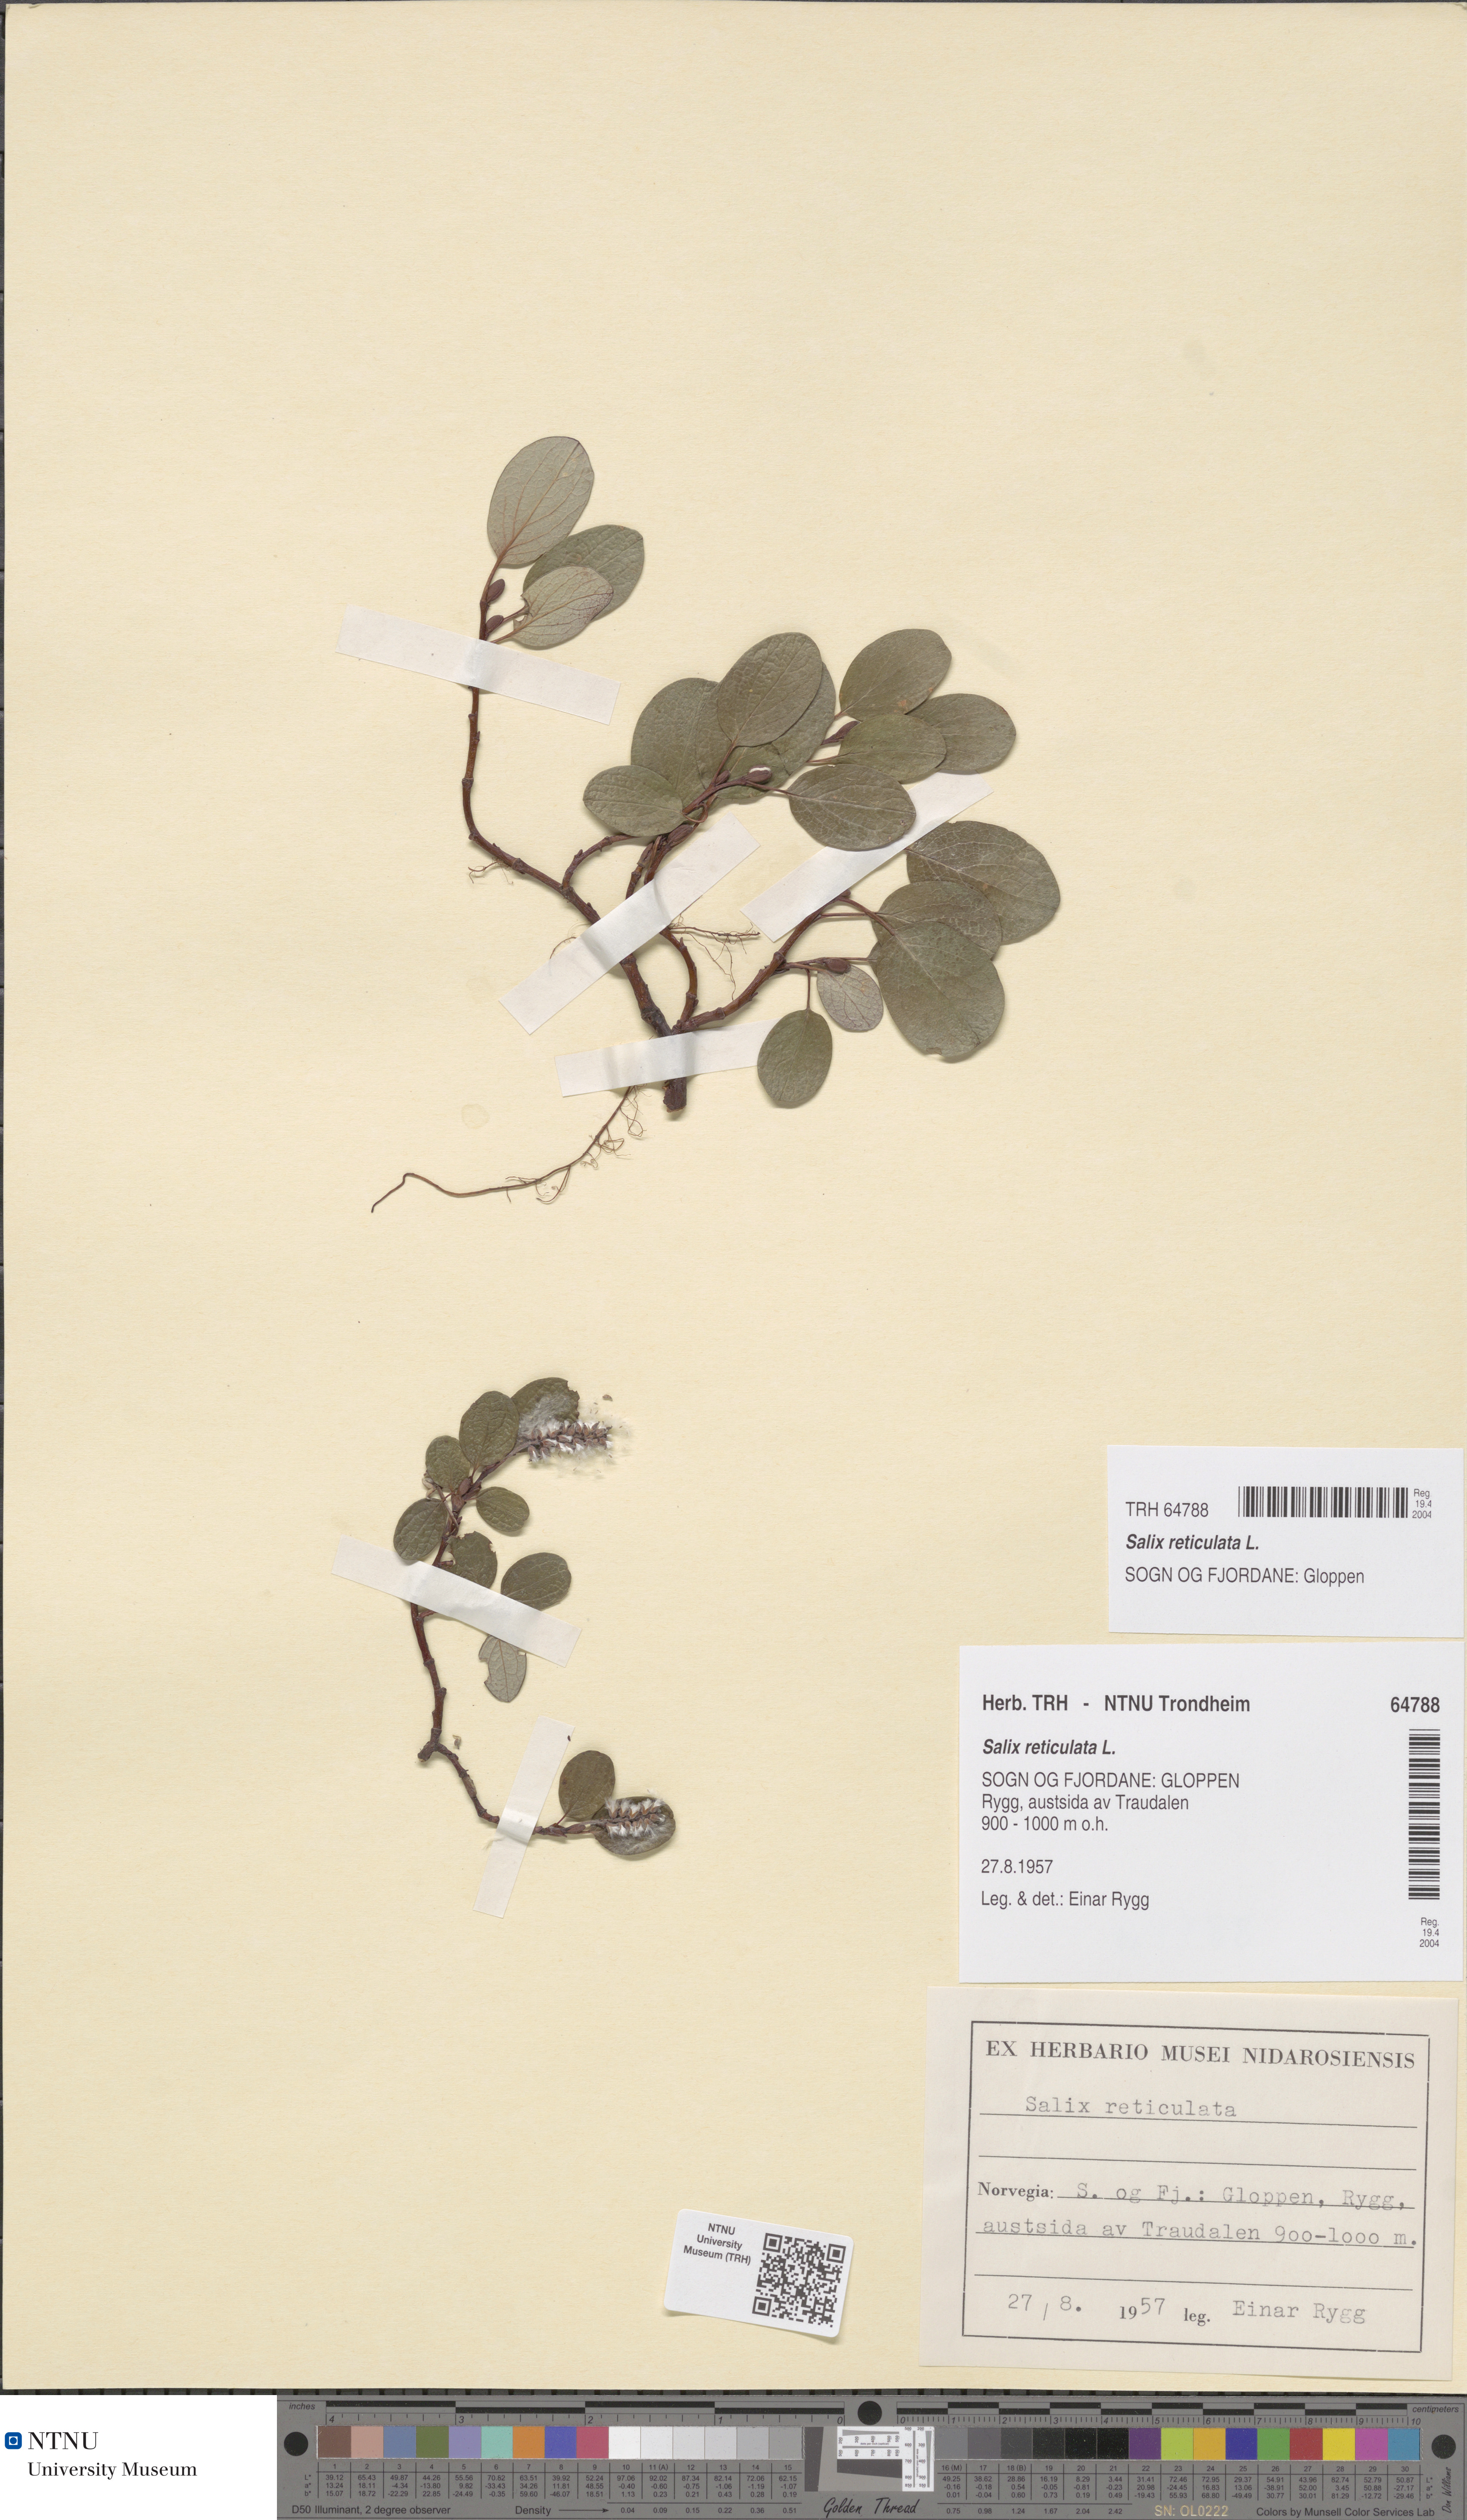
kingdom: Plantae
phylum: Tracheophyta
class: Magnoliopsida
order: Malpighiales
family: Salicaceae
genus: Salix
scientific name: Salix reticulata
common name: Net-leaved willow
